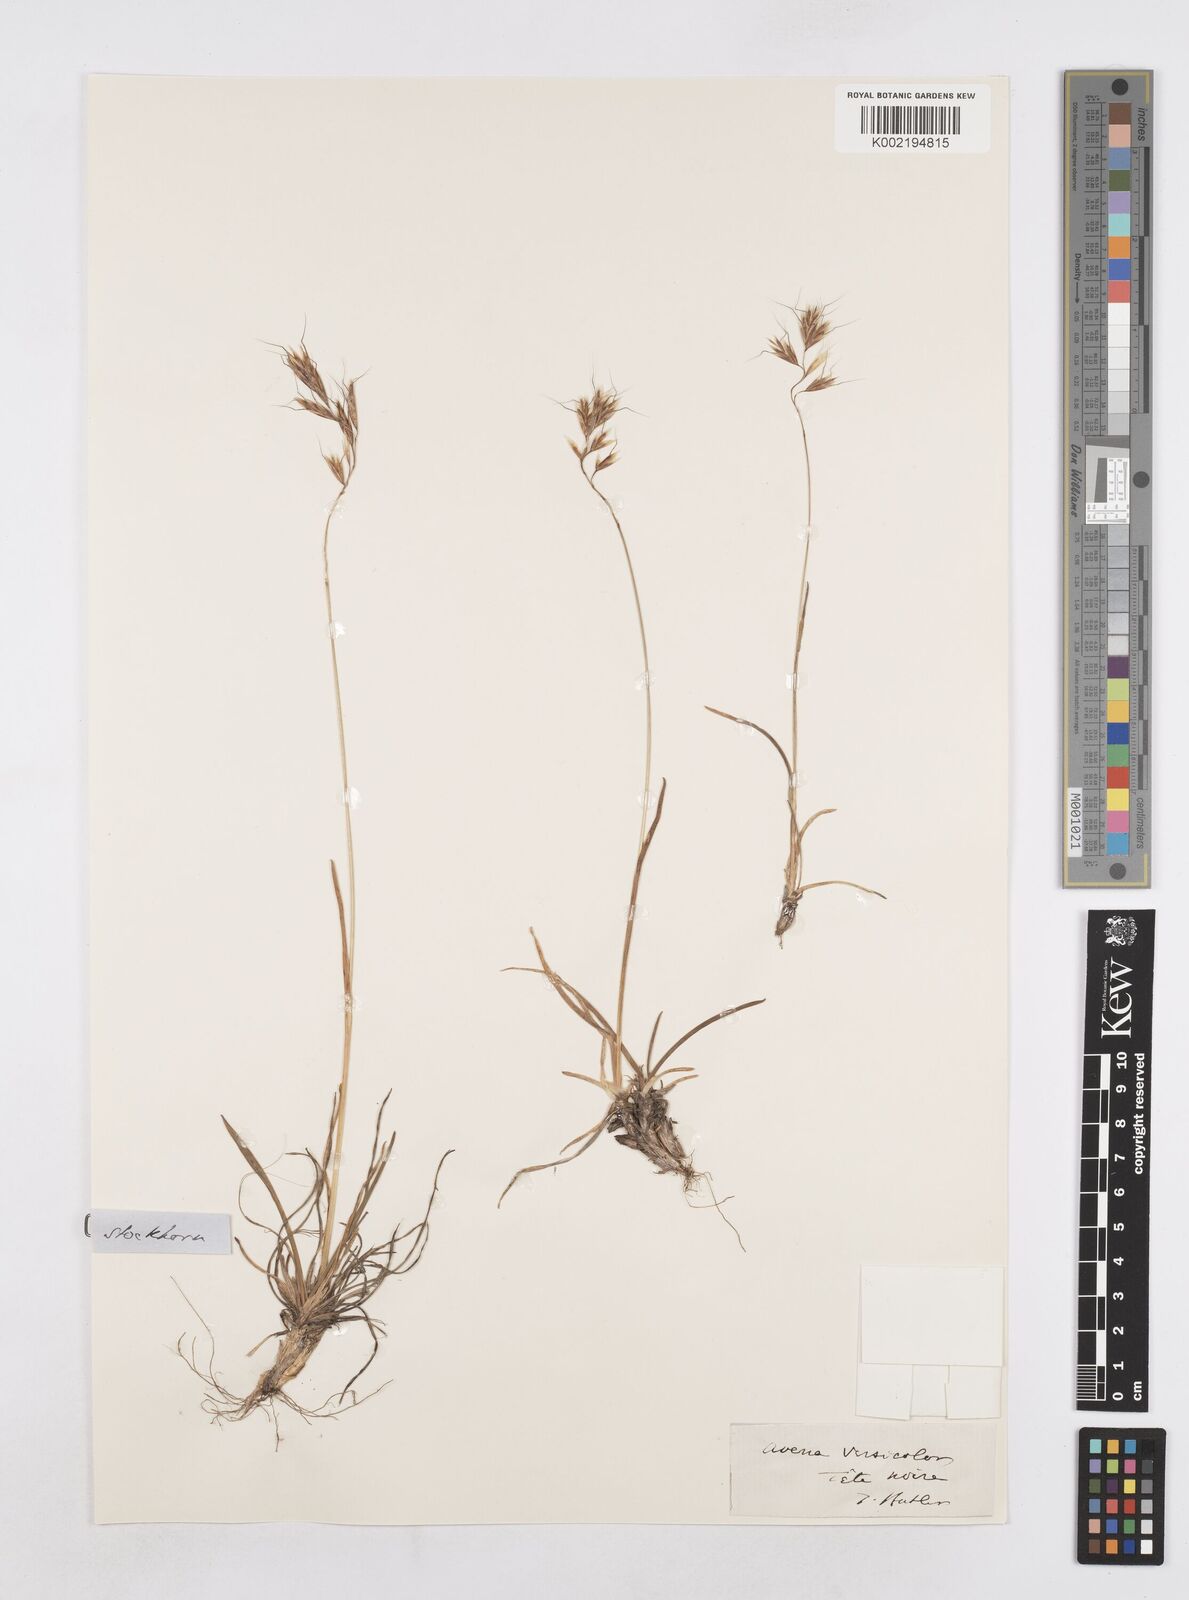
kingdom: Plantae
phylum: Tracheophyta
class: Liliopsida
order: Poales
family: Poaceae
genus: Helictochloa
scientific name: Helictochloa versicolor
